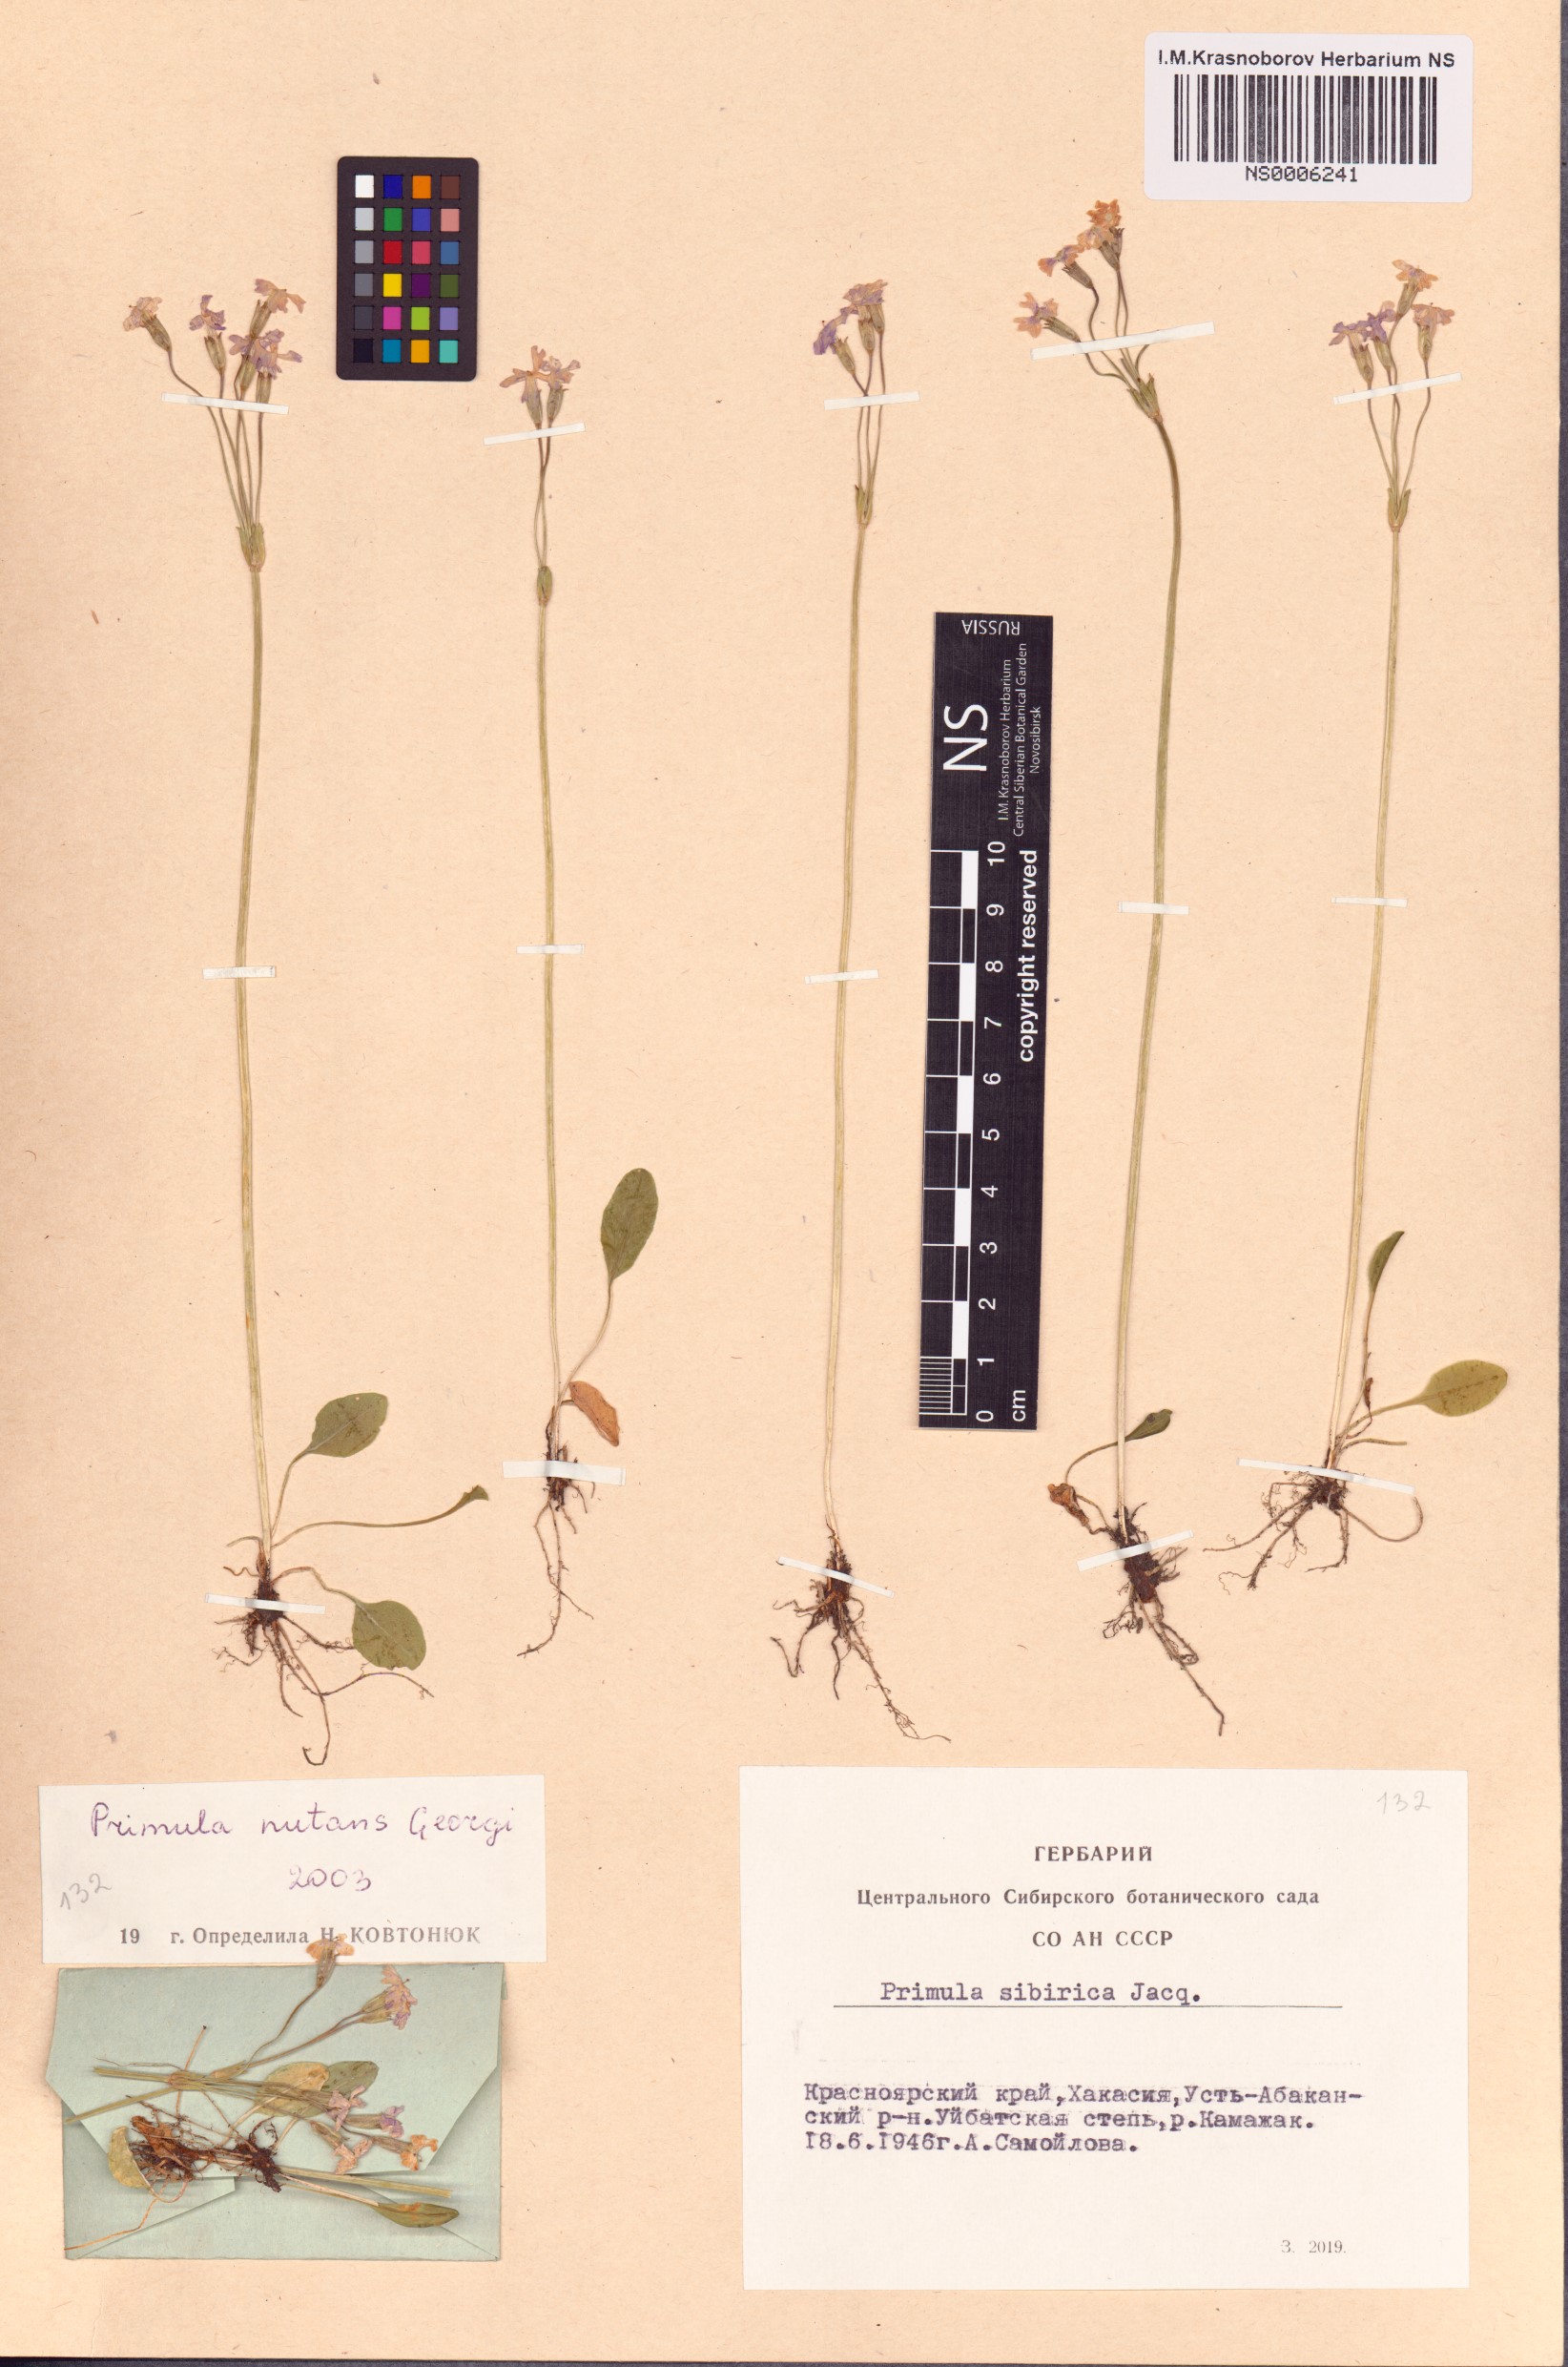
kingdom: Plantae
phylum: Tracheophyta
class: Magnoliopsida
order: Ericales
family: Primulaceae
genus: Primula
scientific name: Primula nutans
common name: Siberian primrose
